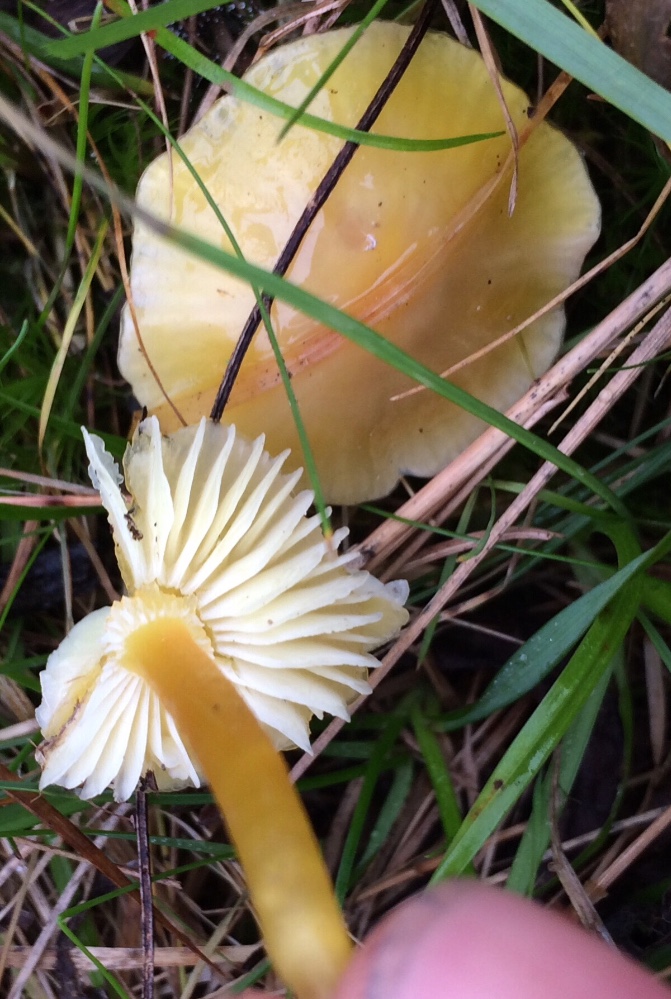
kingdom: Fungi
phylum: Basidiomycota
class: Agaricomycetes
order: Agaricales
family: Hygrophoraceae
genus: Hygrocybe
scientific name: Hygrocybe ceracea
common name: voksgul vokshat
